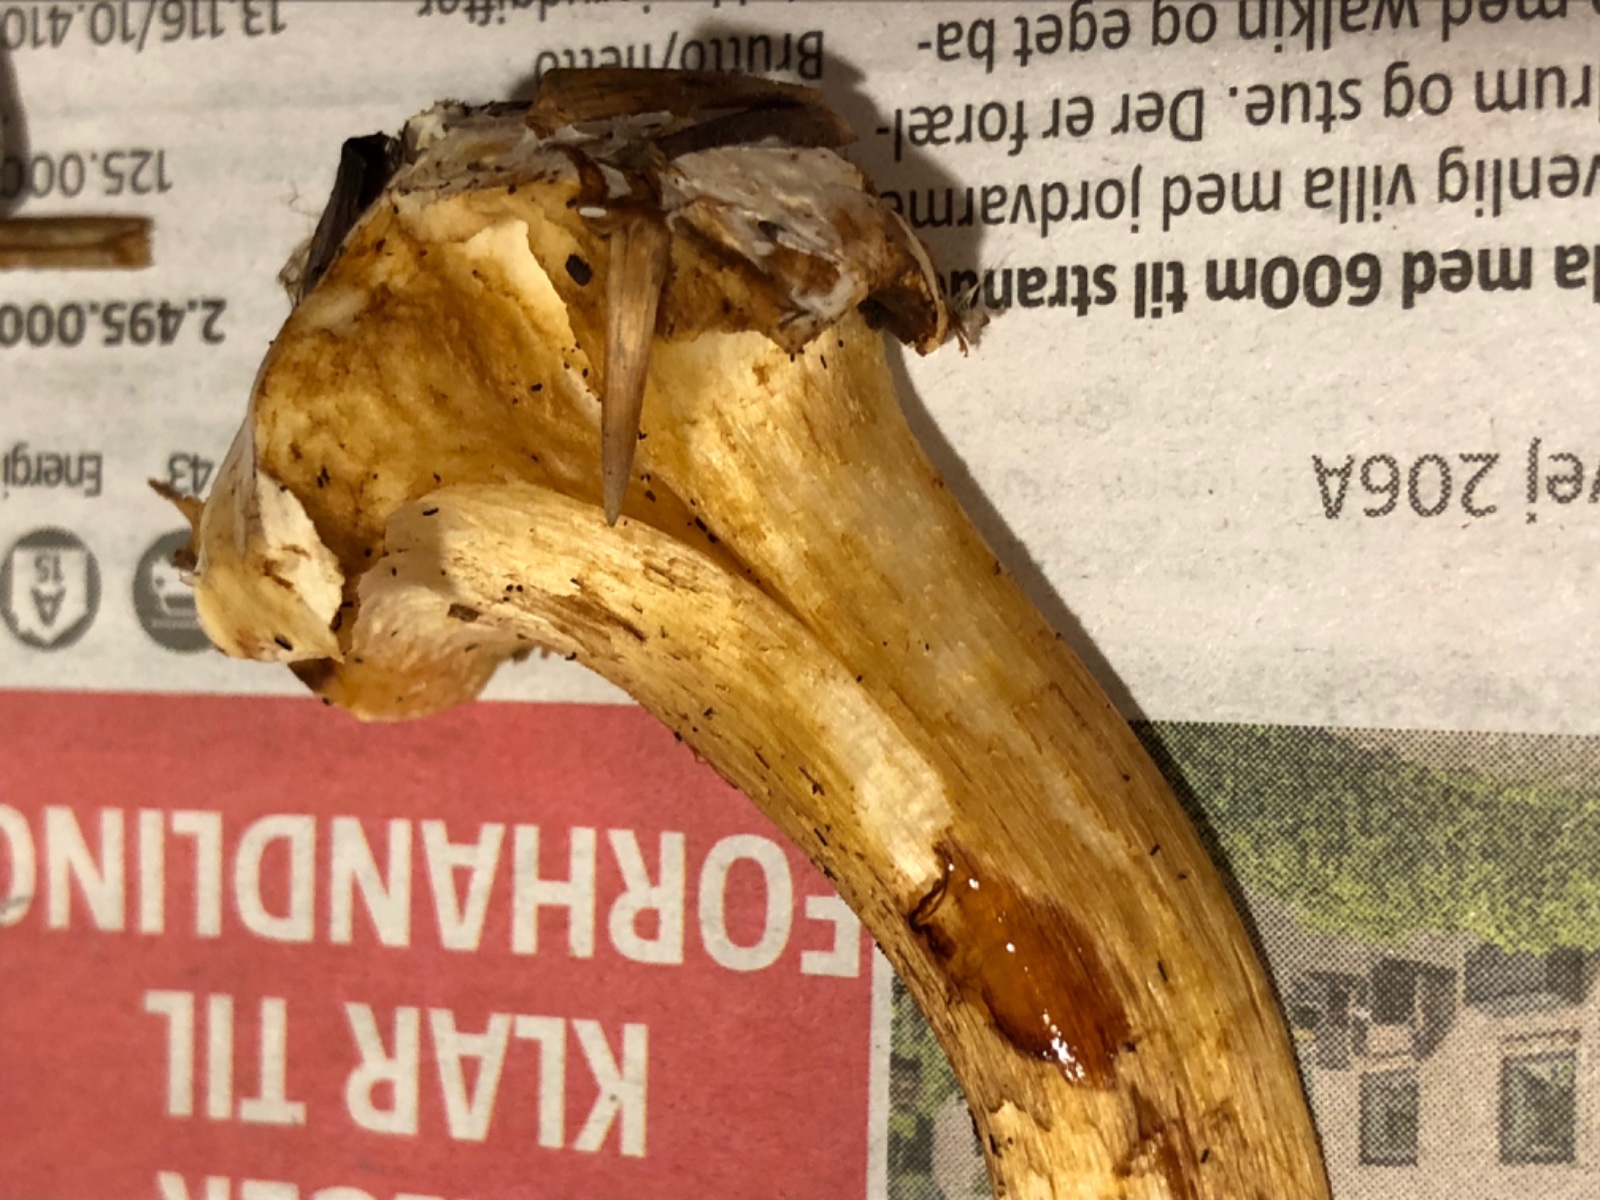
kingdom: Fungi
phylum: Basidiomycota
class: Agaricomycetes
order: Agaricales
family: Cortinariaceae
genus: Cortinarius
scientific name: Cortinarius anserinus
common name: bøge-slørhat
